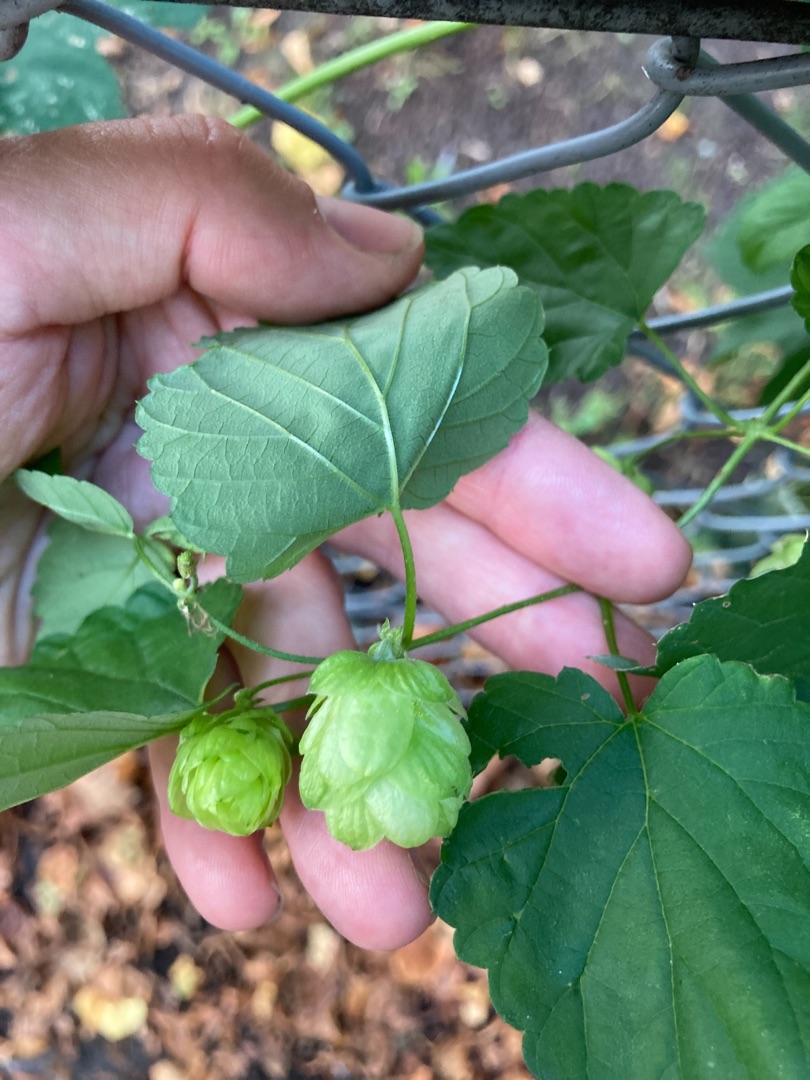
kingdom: Plantae
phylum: Tracheophyta
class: Magnoliopsida
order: Rosales
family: Cannabaceae
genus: Humulus
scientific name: Humulus lupulus
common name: Humle
